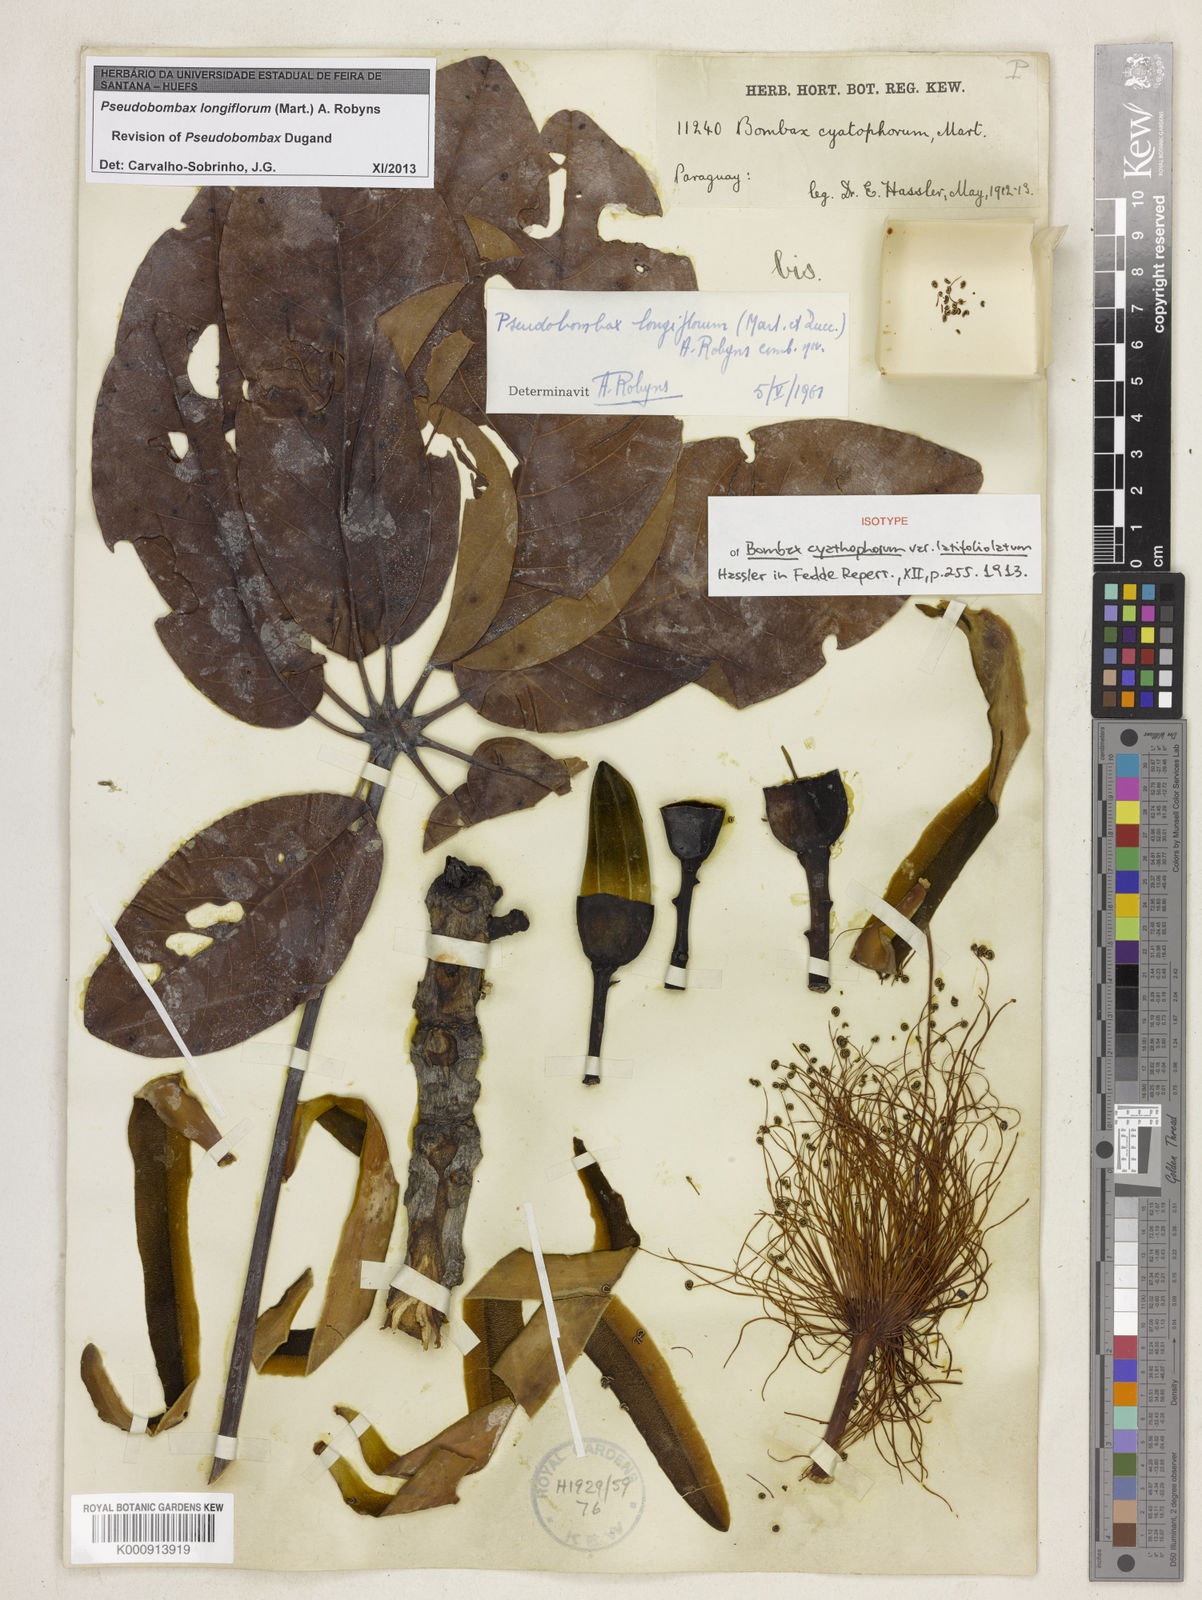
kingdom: Plantae
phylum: Tracheophyta
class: Magnoliopsida
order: Malvales
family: Malvaceae
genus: Pseudobombax
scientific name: Pseudobombax longiflorum
